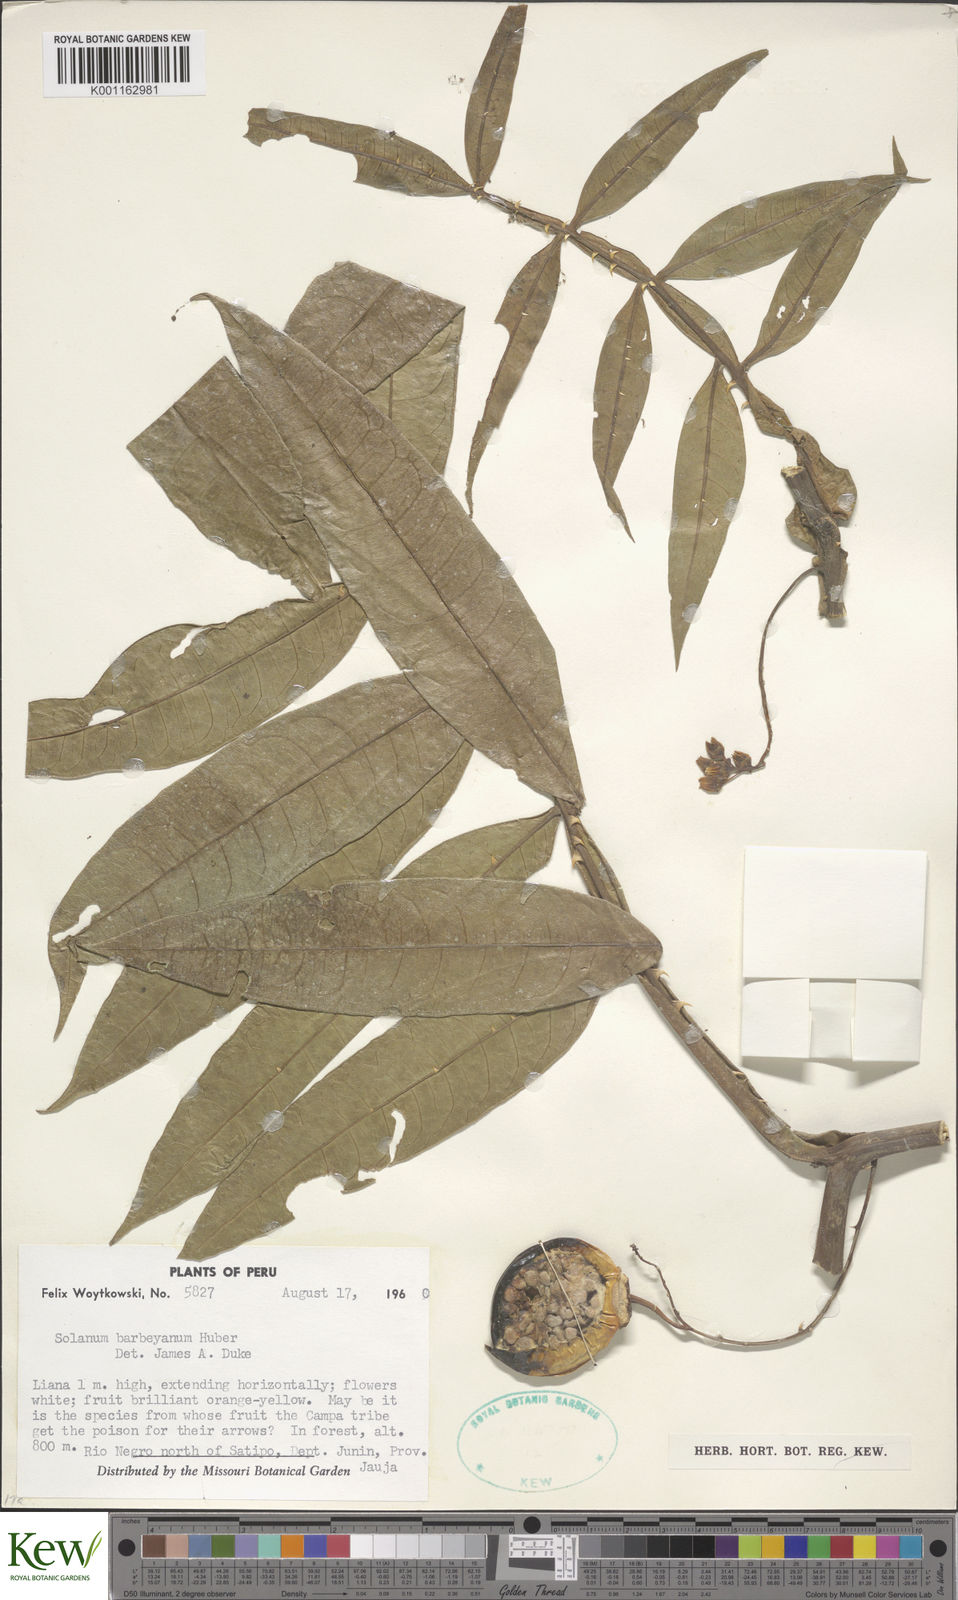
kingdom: Plantae
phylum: Tracheophyta
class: Magnoliopsida
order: Solanales
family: Solanaceae
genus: Solanum
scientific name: Solanum barbeyanum
